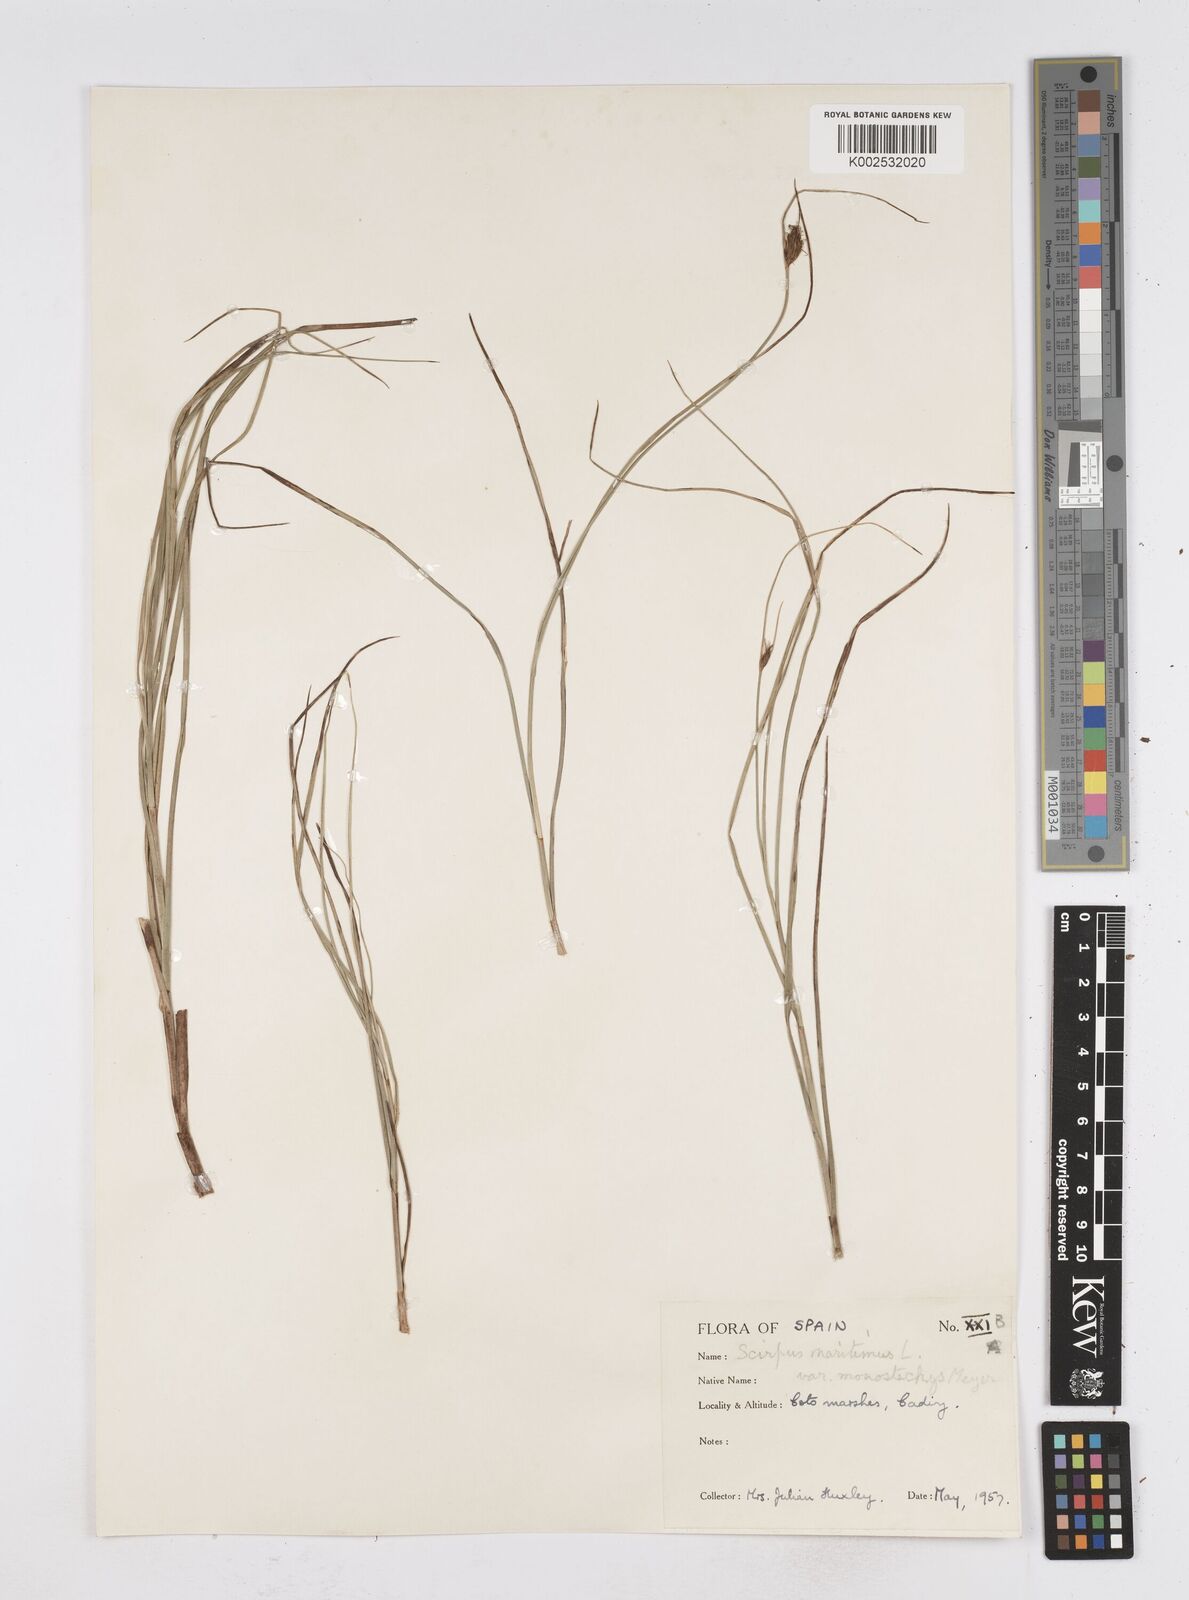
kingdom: Plantae
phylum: Tracheophyta
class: Liliopsida
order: Poales
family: Cyperaceae
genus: Bolboschoenus
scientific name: Bolboschoenus maritimus
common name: Sea club-rush
